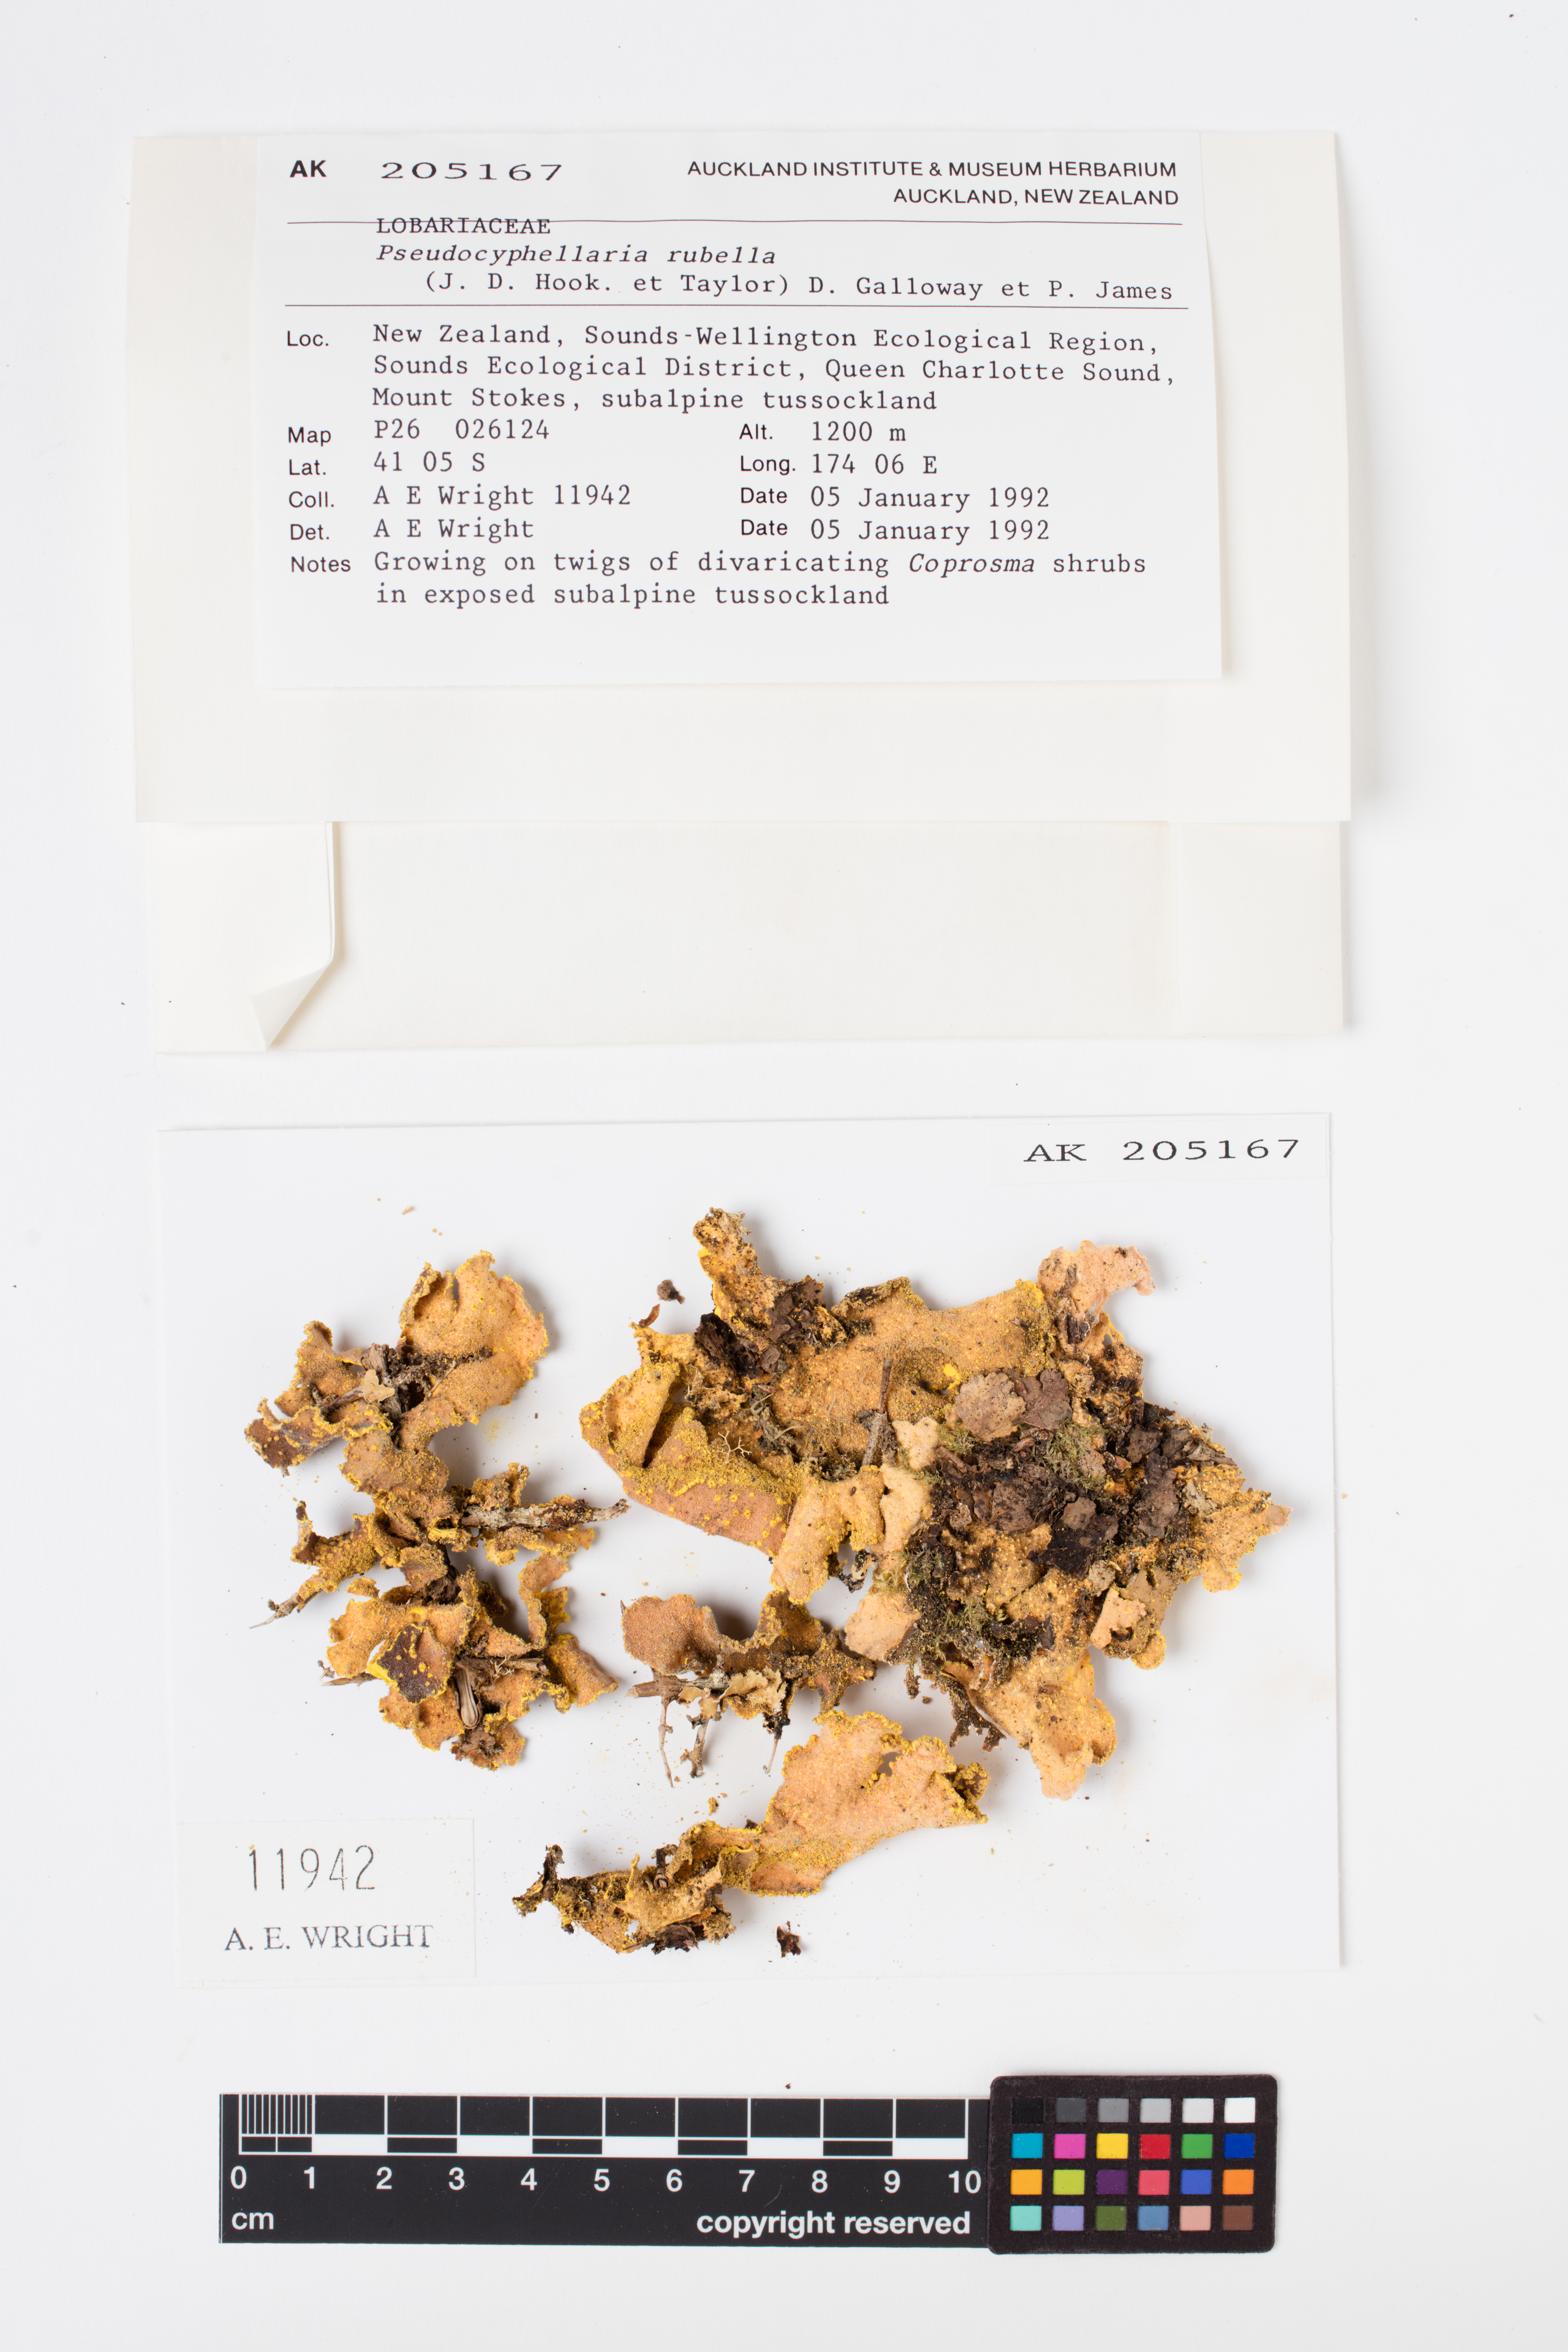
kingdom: Fungi
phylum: Ascomycota
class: Lecanoromycetes
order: Peltigerales
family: Lobariaceae
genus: Pseudocyphellaria
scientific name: Pseudocyphellaria rubella
